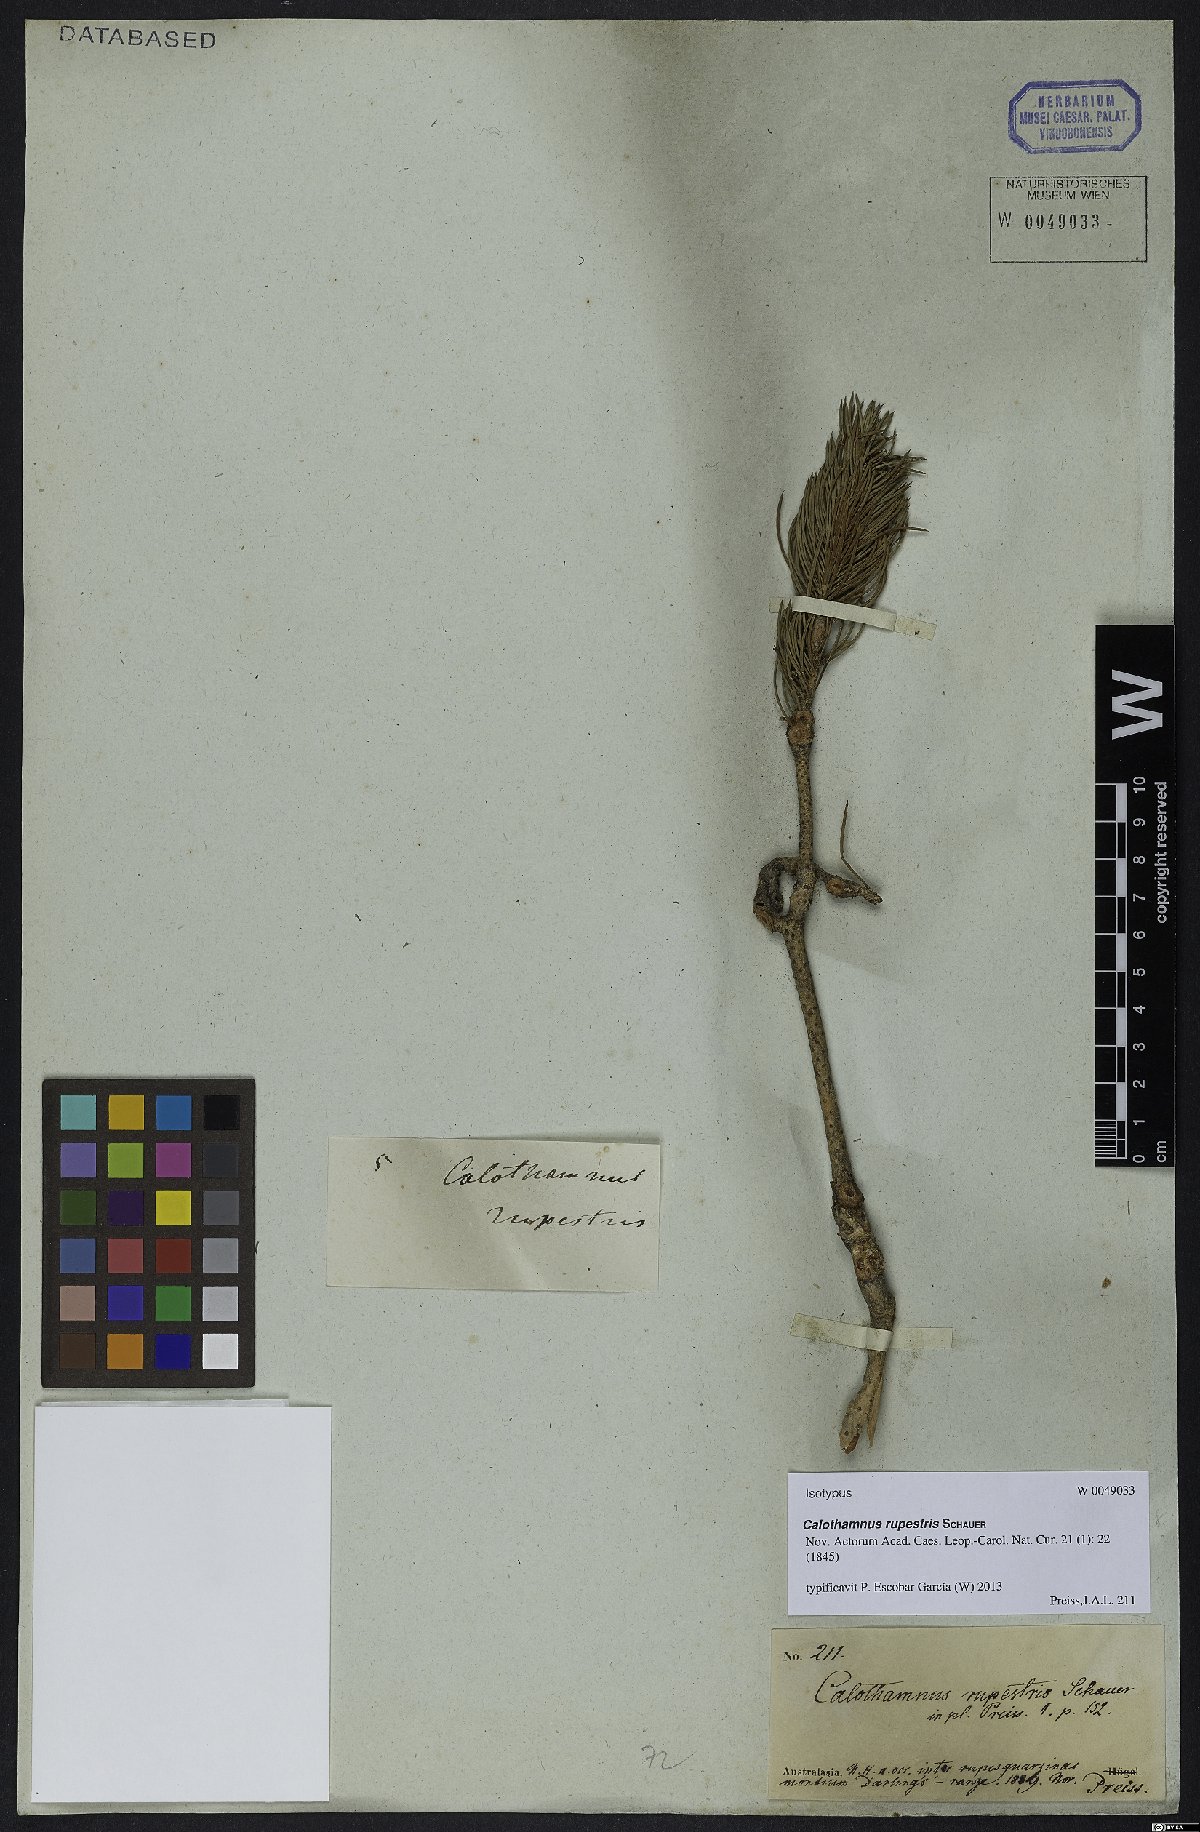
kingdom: Plantae
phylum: Tracheophyta
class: Magnoliopsida
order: Myrtales
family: Myrtaceae
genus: Melaleuca
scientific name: Melaleuca rupestris
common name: Cliff net-bush
